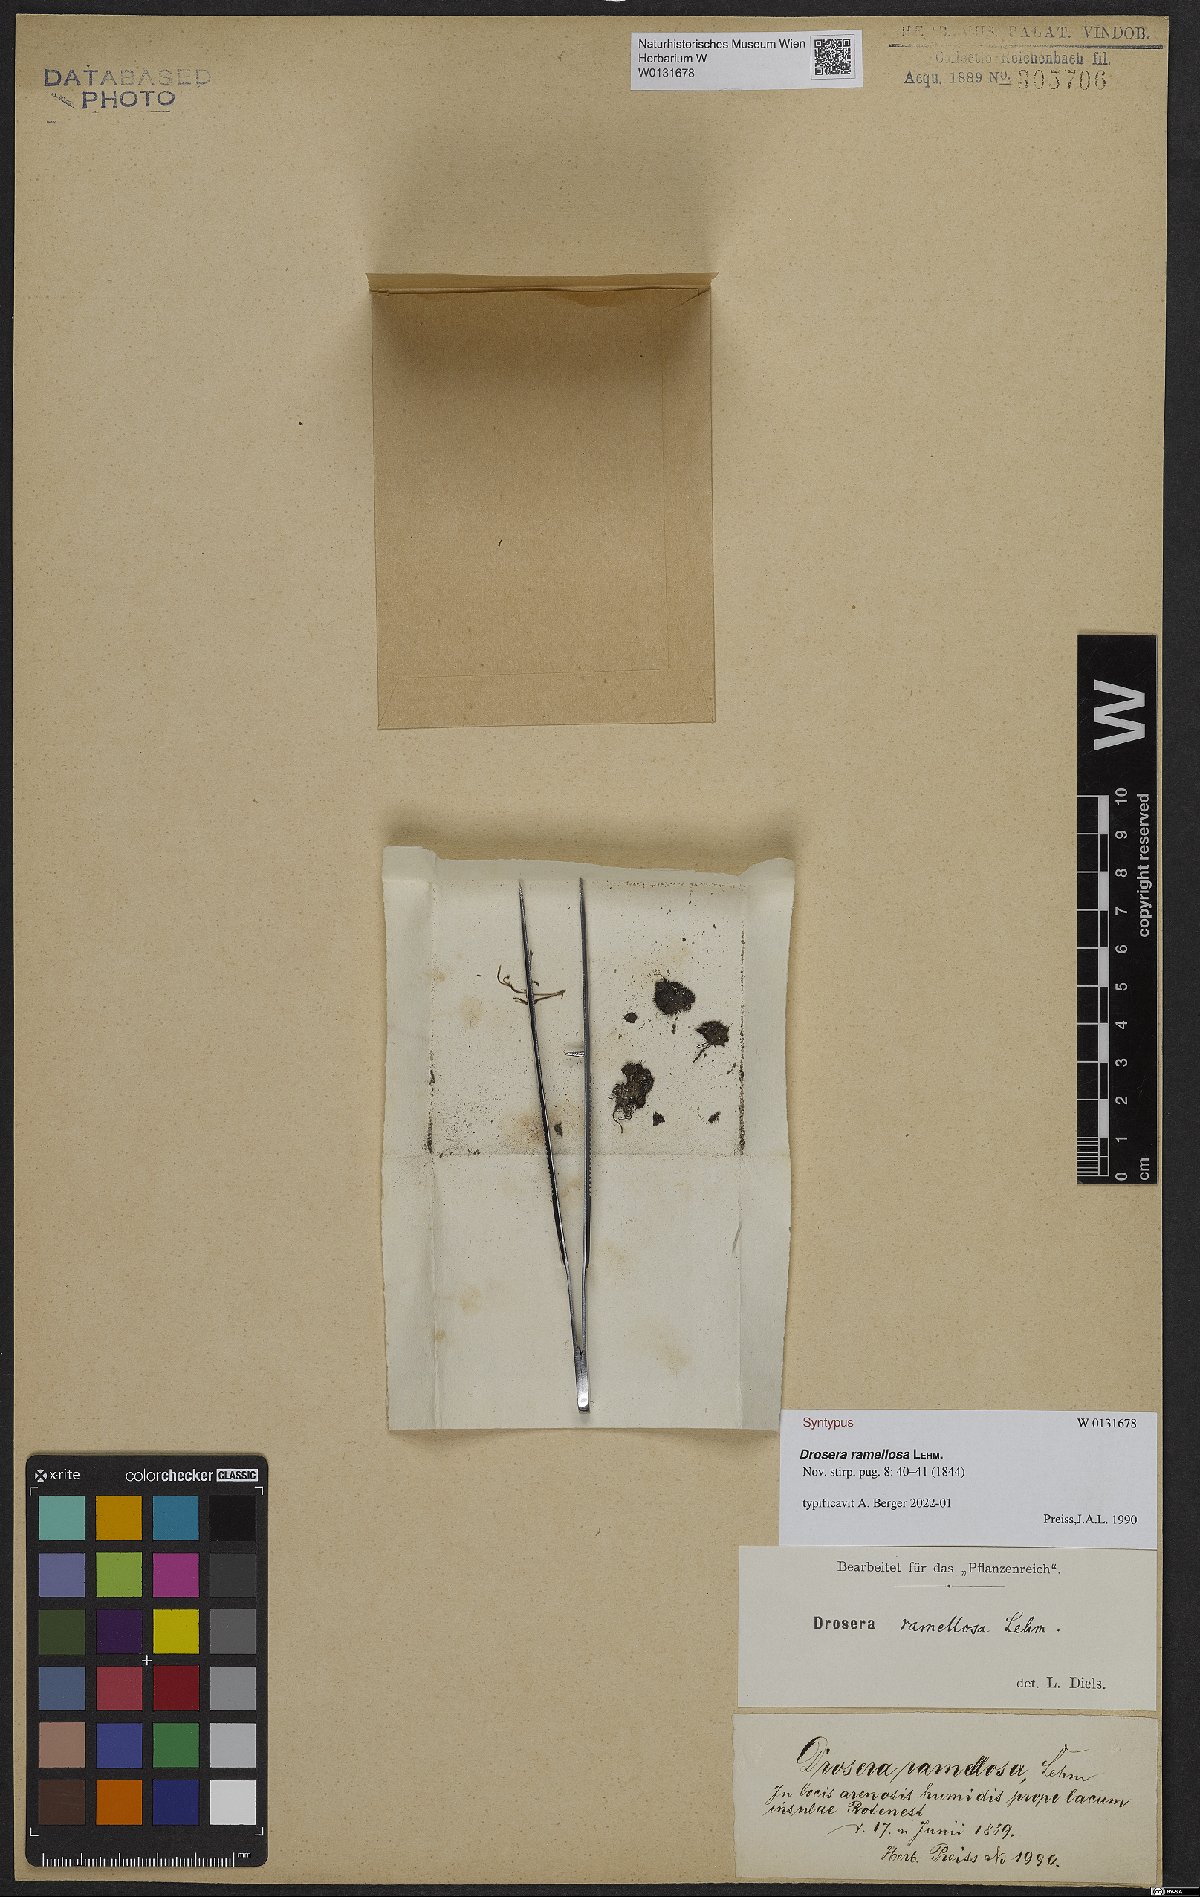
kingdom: Plantae
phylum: Tracheophyta
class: Magnoliopsida
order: Caryophyllales
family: Droseraceae
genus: Drosera
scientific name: Drosera ramellosa
